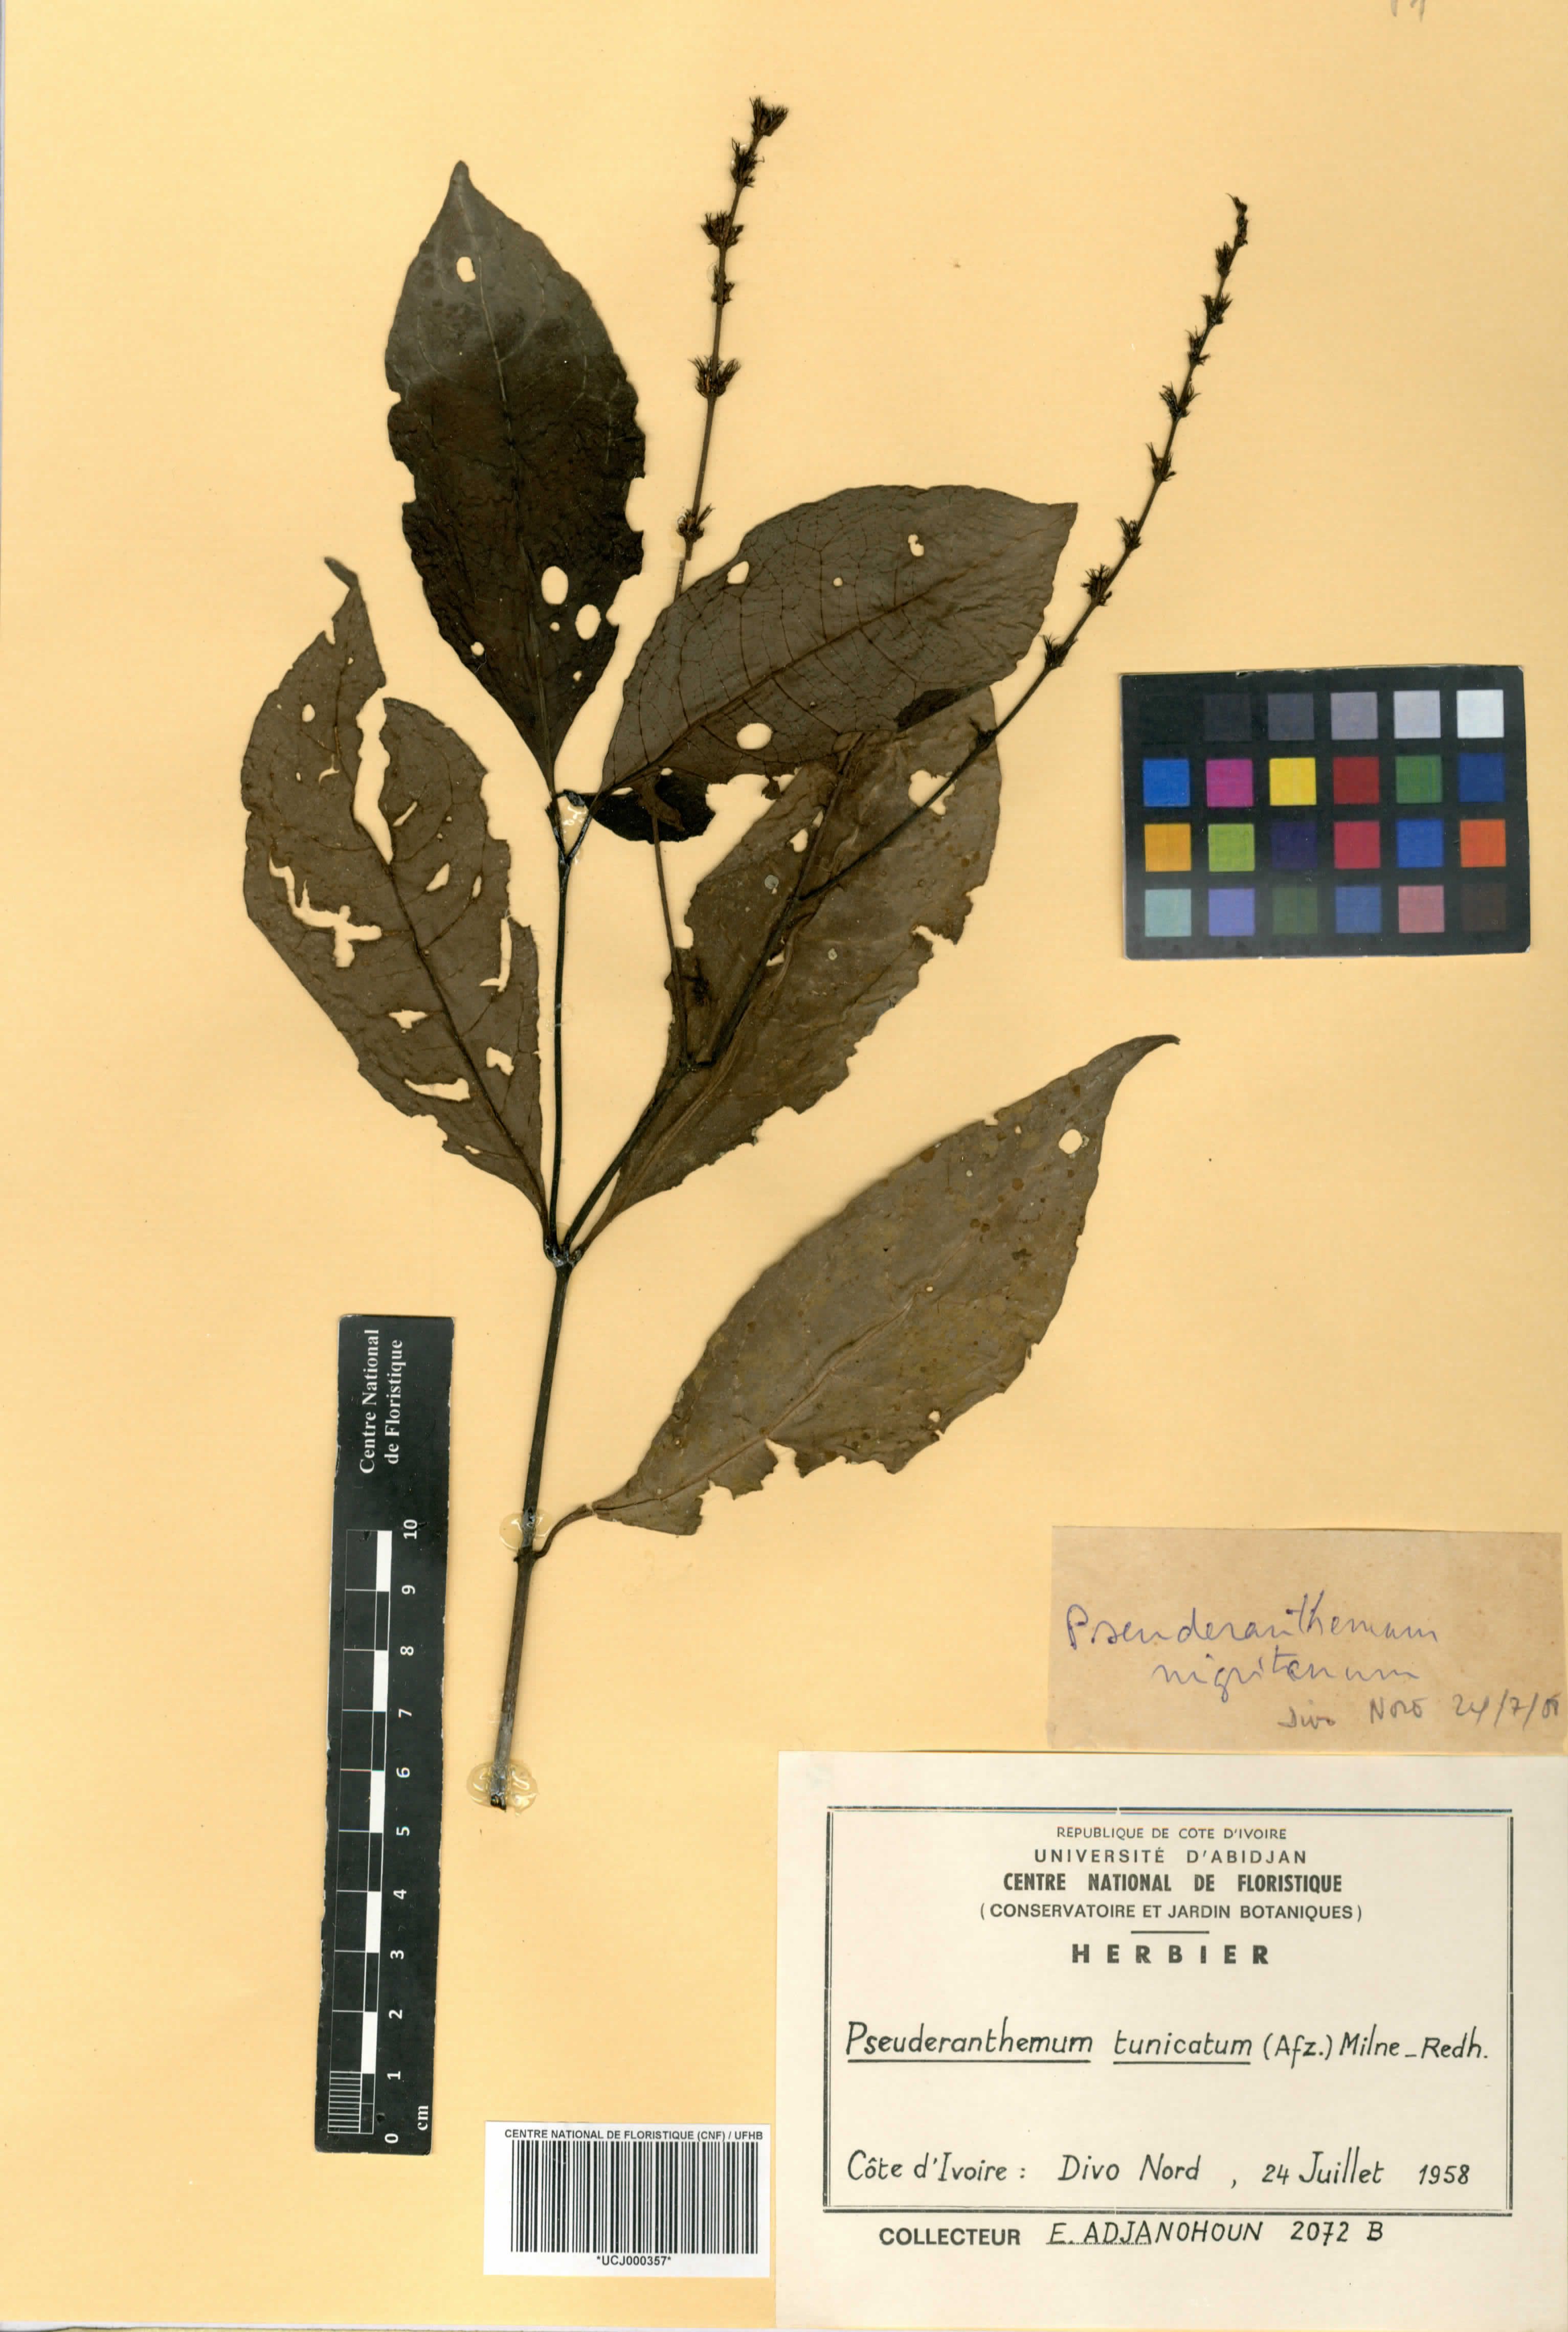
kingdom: Plantae
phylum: Tracheophyta
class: Magnoliopsida
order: Lamiales
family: Acanthaceae
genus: Pseuderanthemum
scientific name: Pseuderanthemum tunicatum
